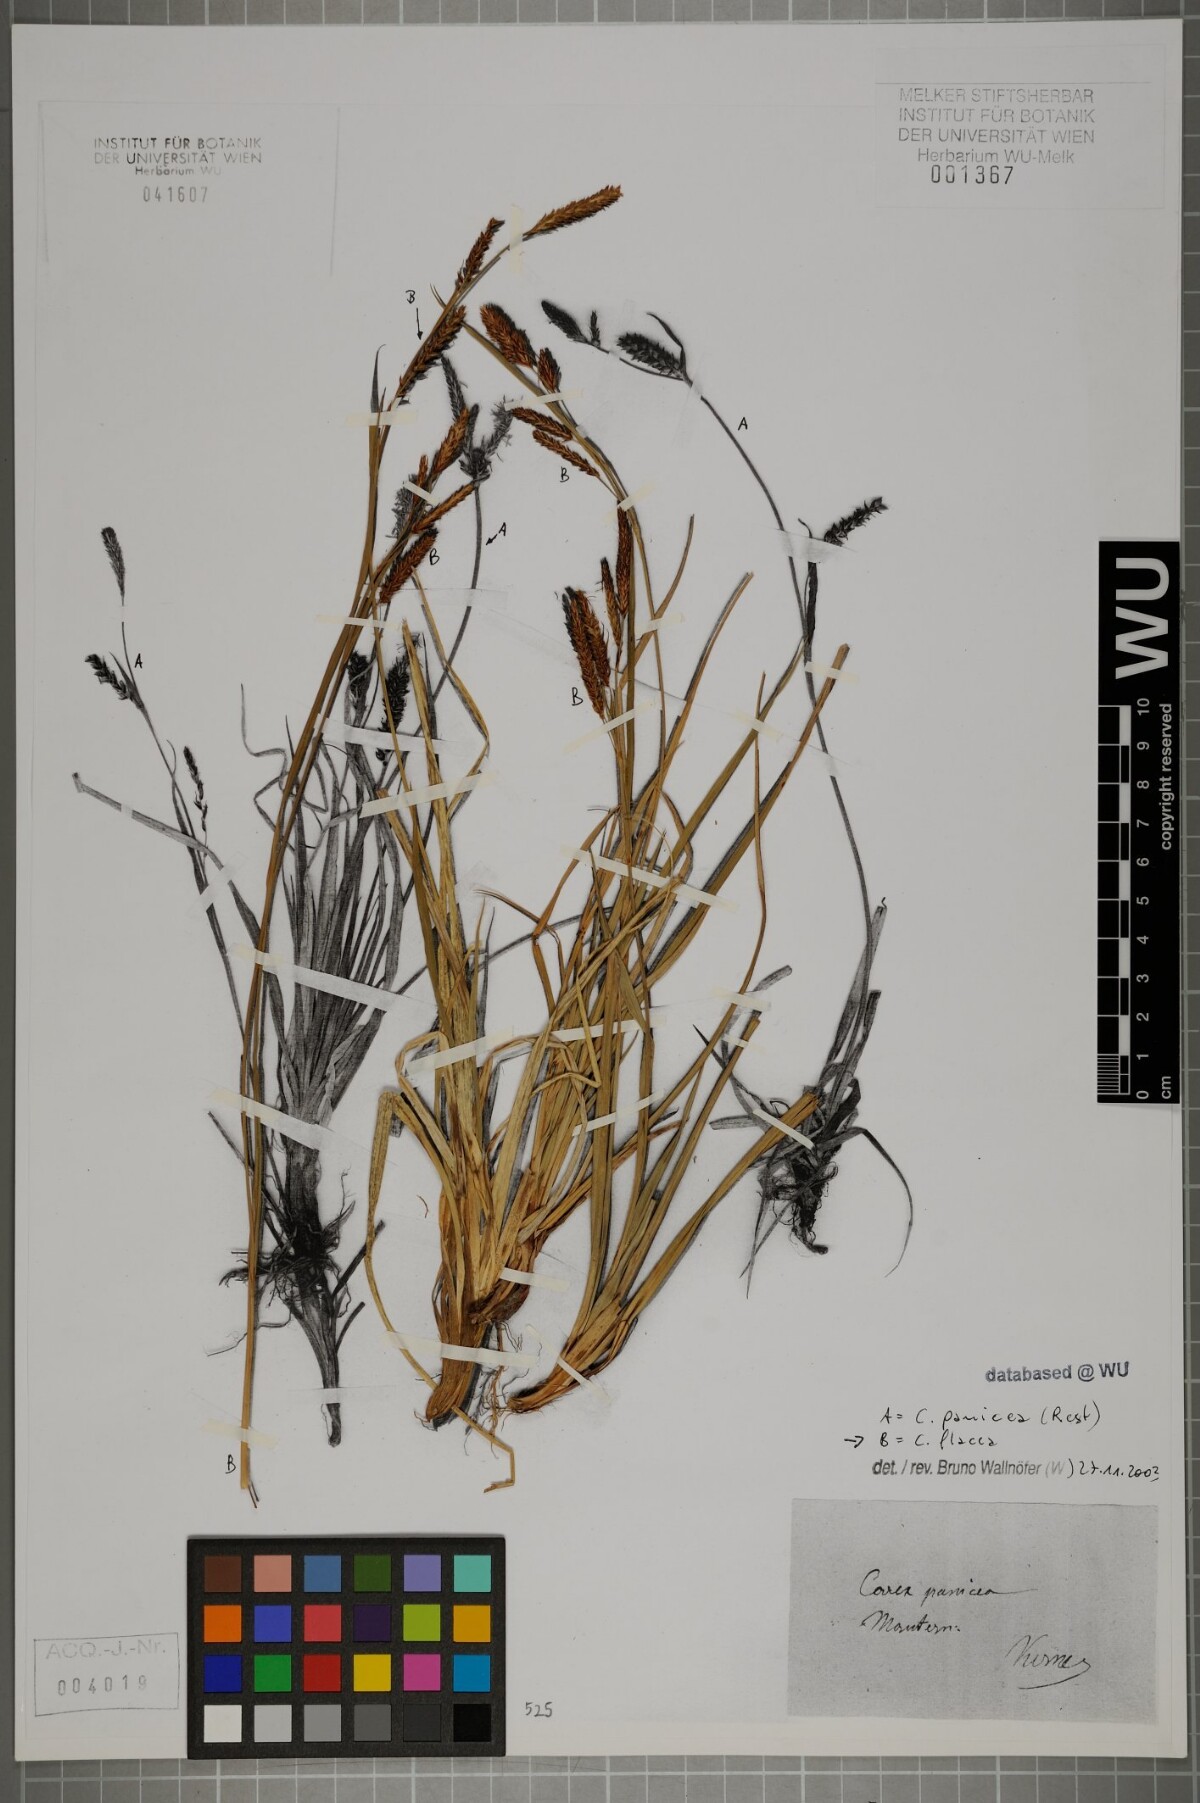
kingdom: Plantae
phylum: Tracheophyta
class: Liliopsida
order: Poales
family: Cyperaceae
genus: Carex
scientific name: Carex flacca
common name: Glaucous sedge
